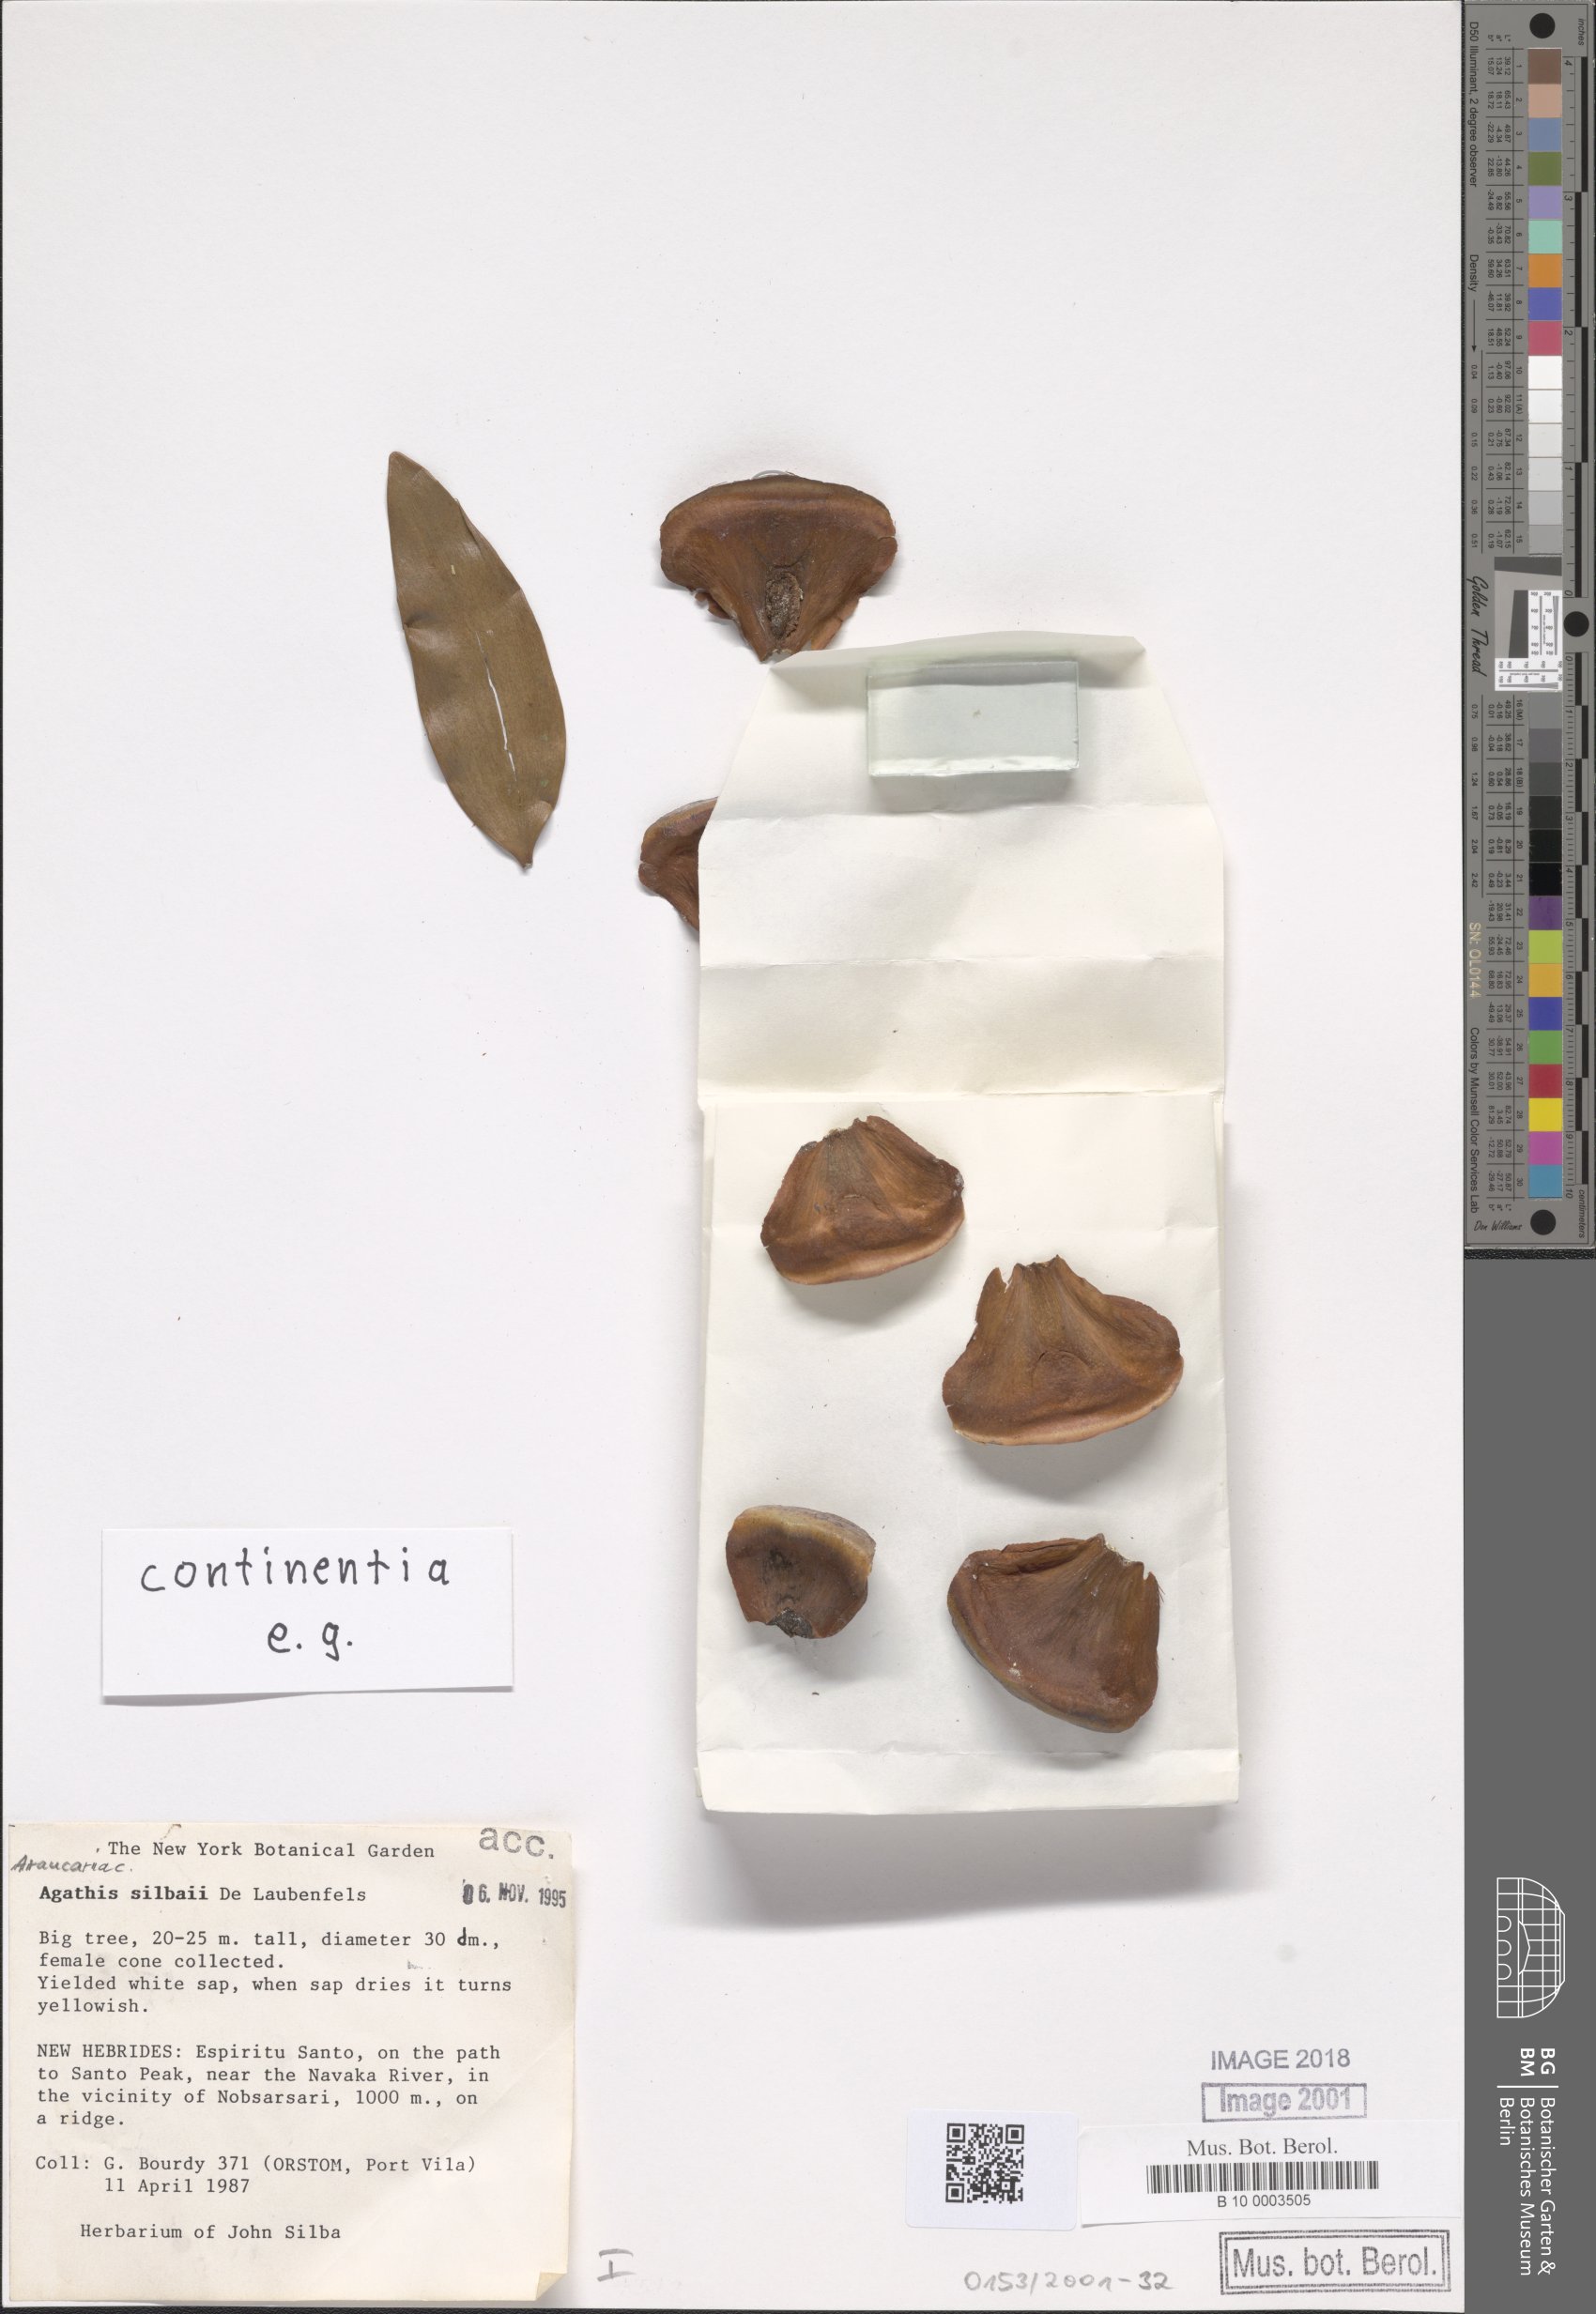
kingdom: Plantae
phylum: Tracheophyta
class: Pinopsida
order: Pinales
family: Araucariaceae
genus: Agathis
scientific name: Agathis silbae
